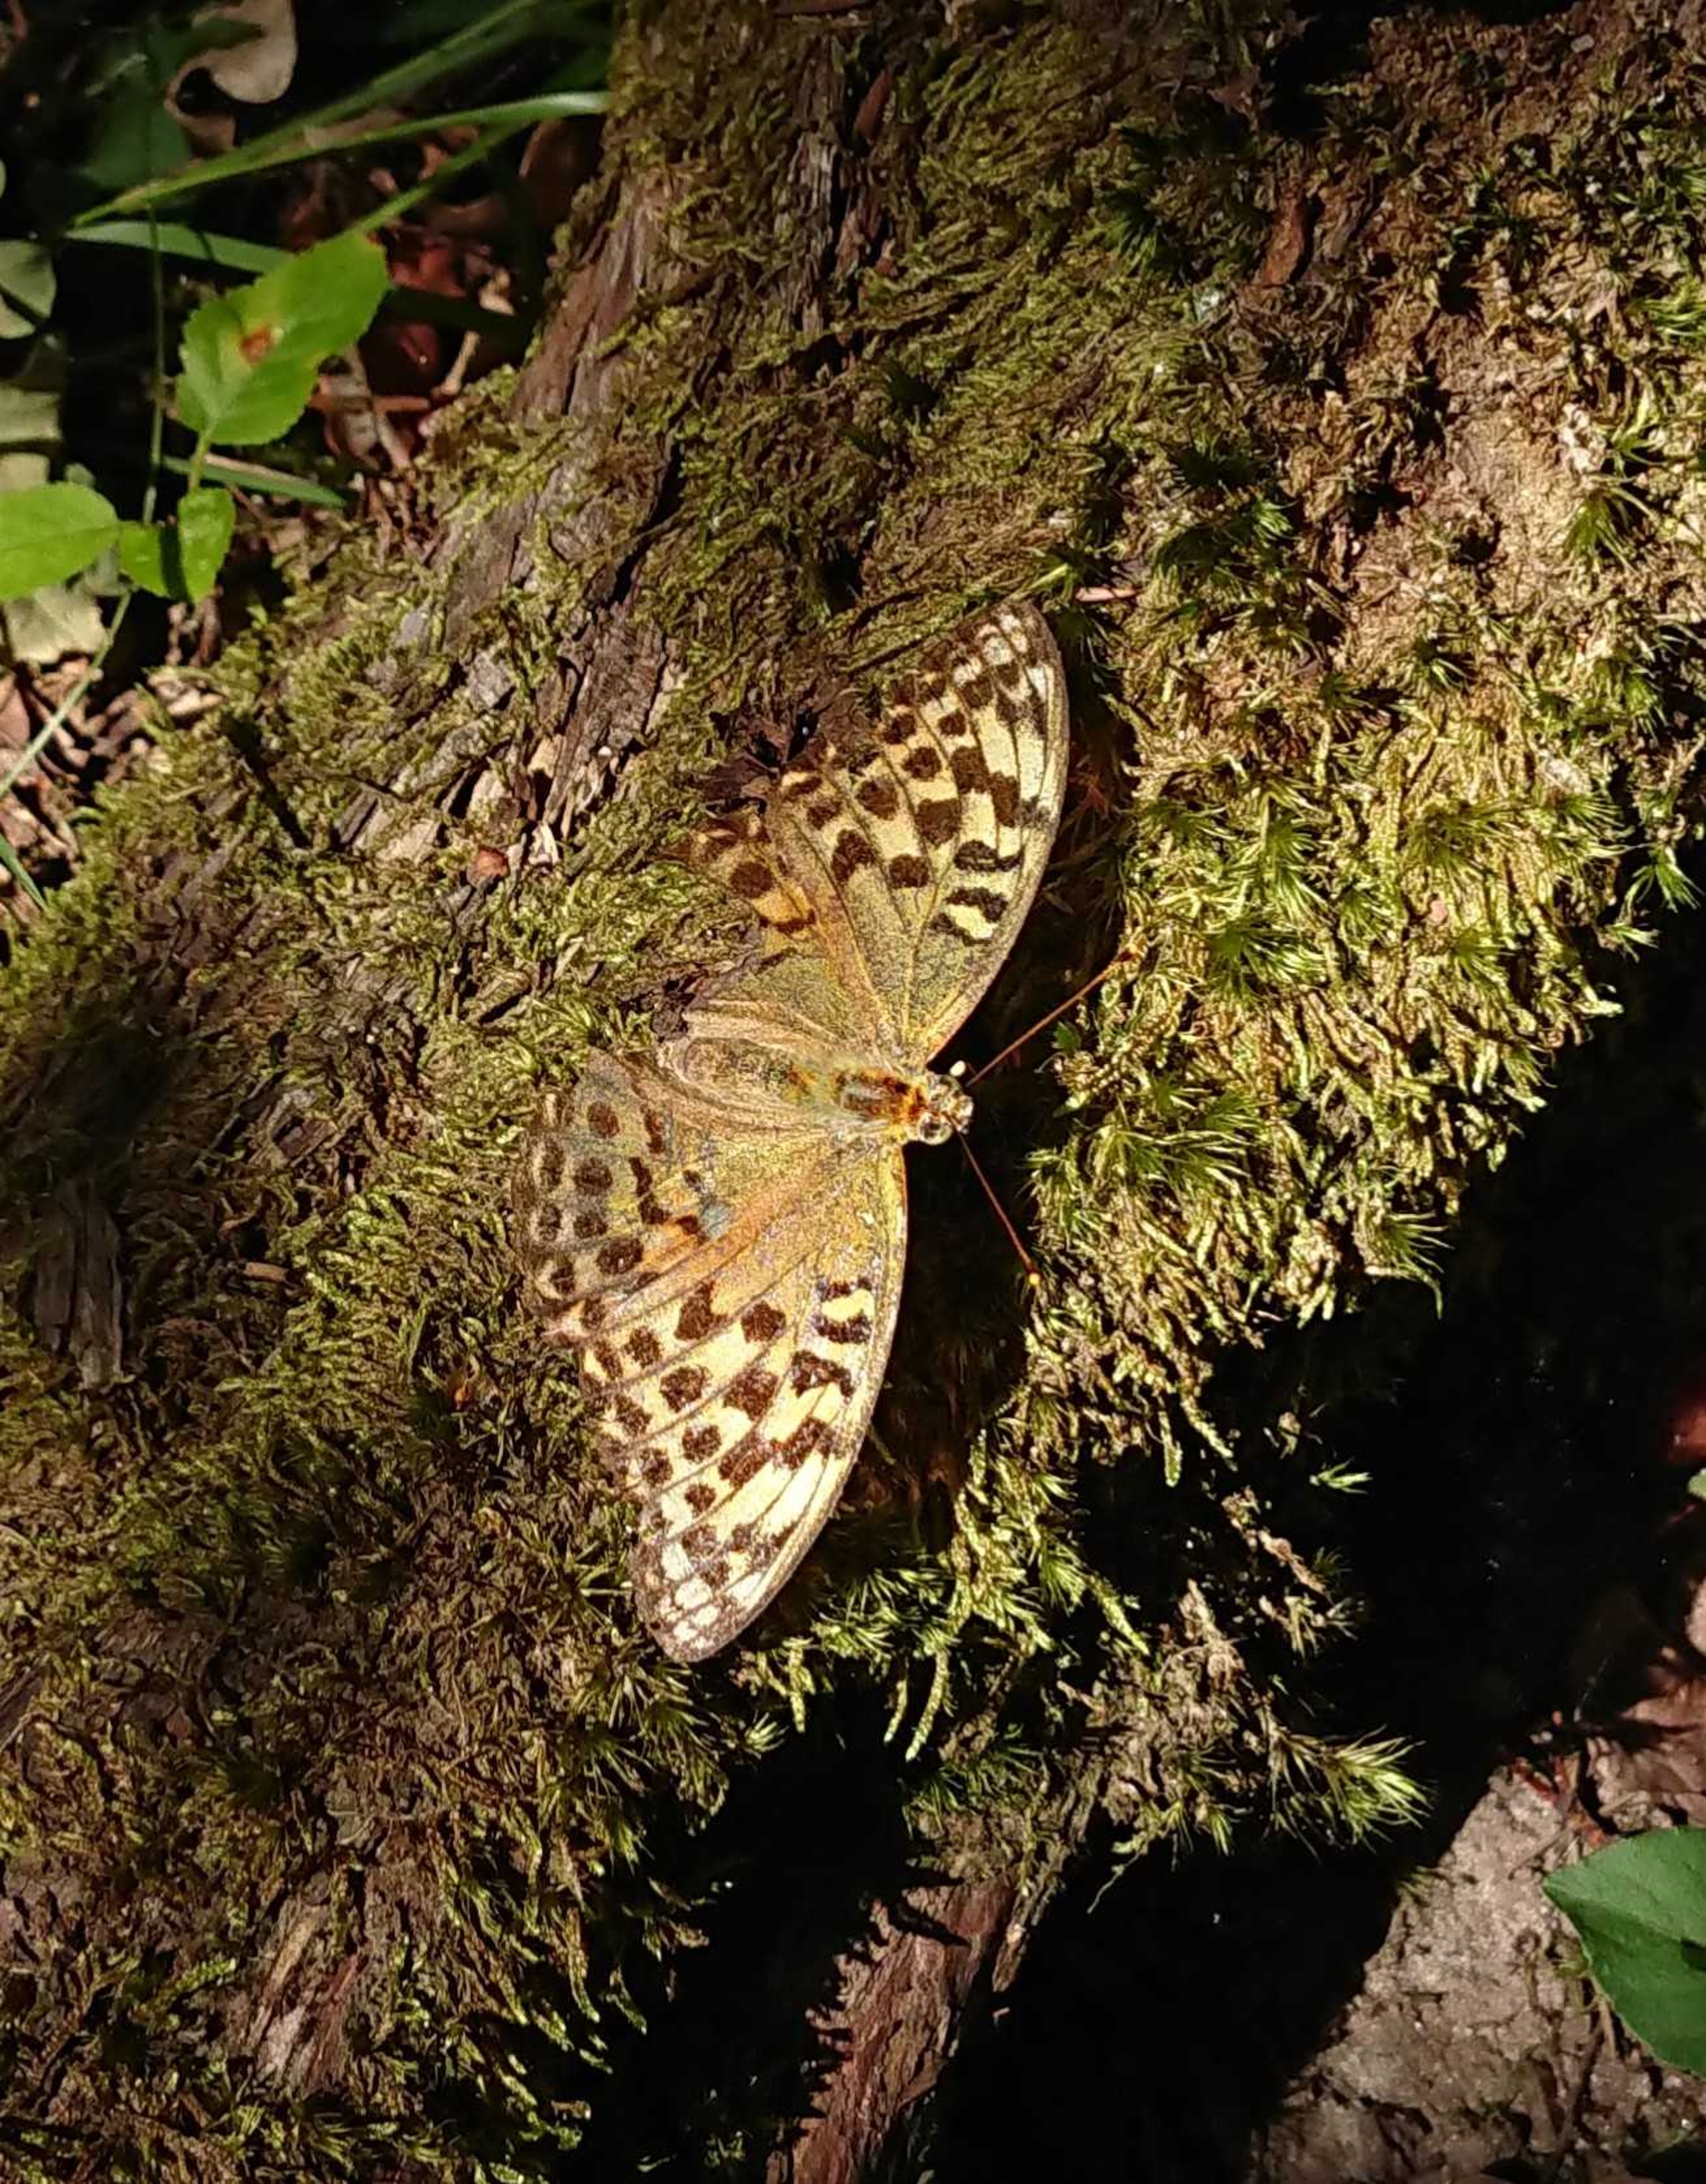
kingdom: Animalia
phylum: Arthropoda
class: Insecta
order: Lepidoptera
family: Nymphalidae
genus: Argynnis
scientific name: Argynnis paphia
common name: Kejserkåbe
